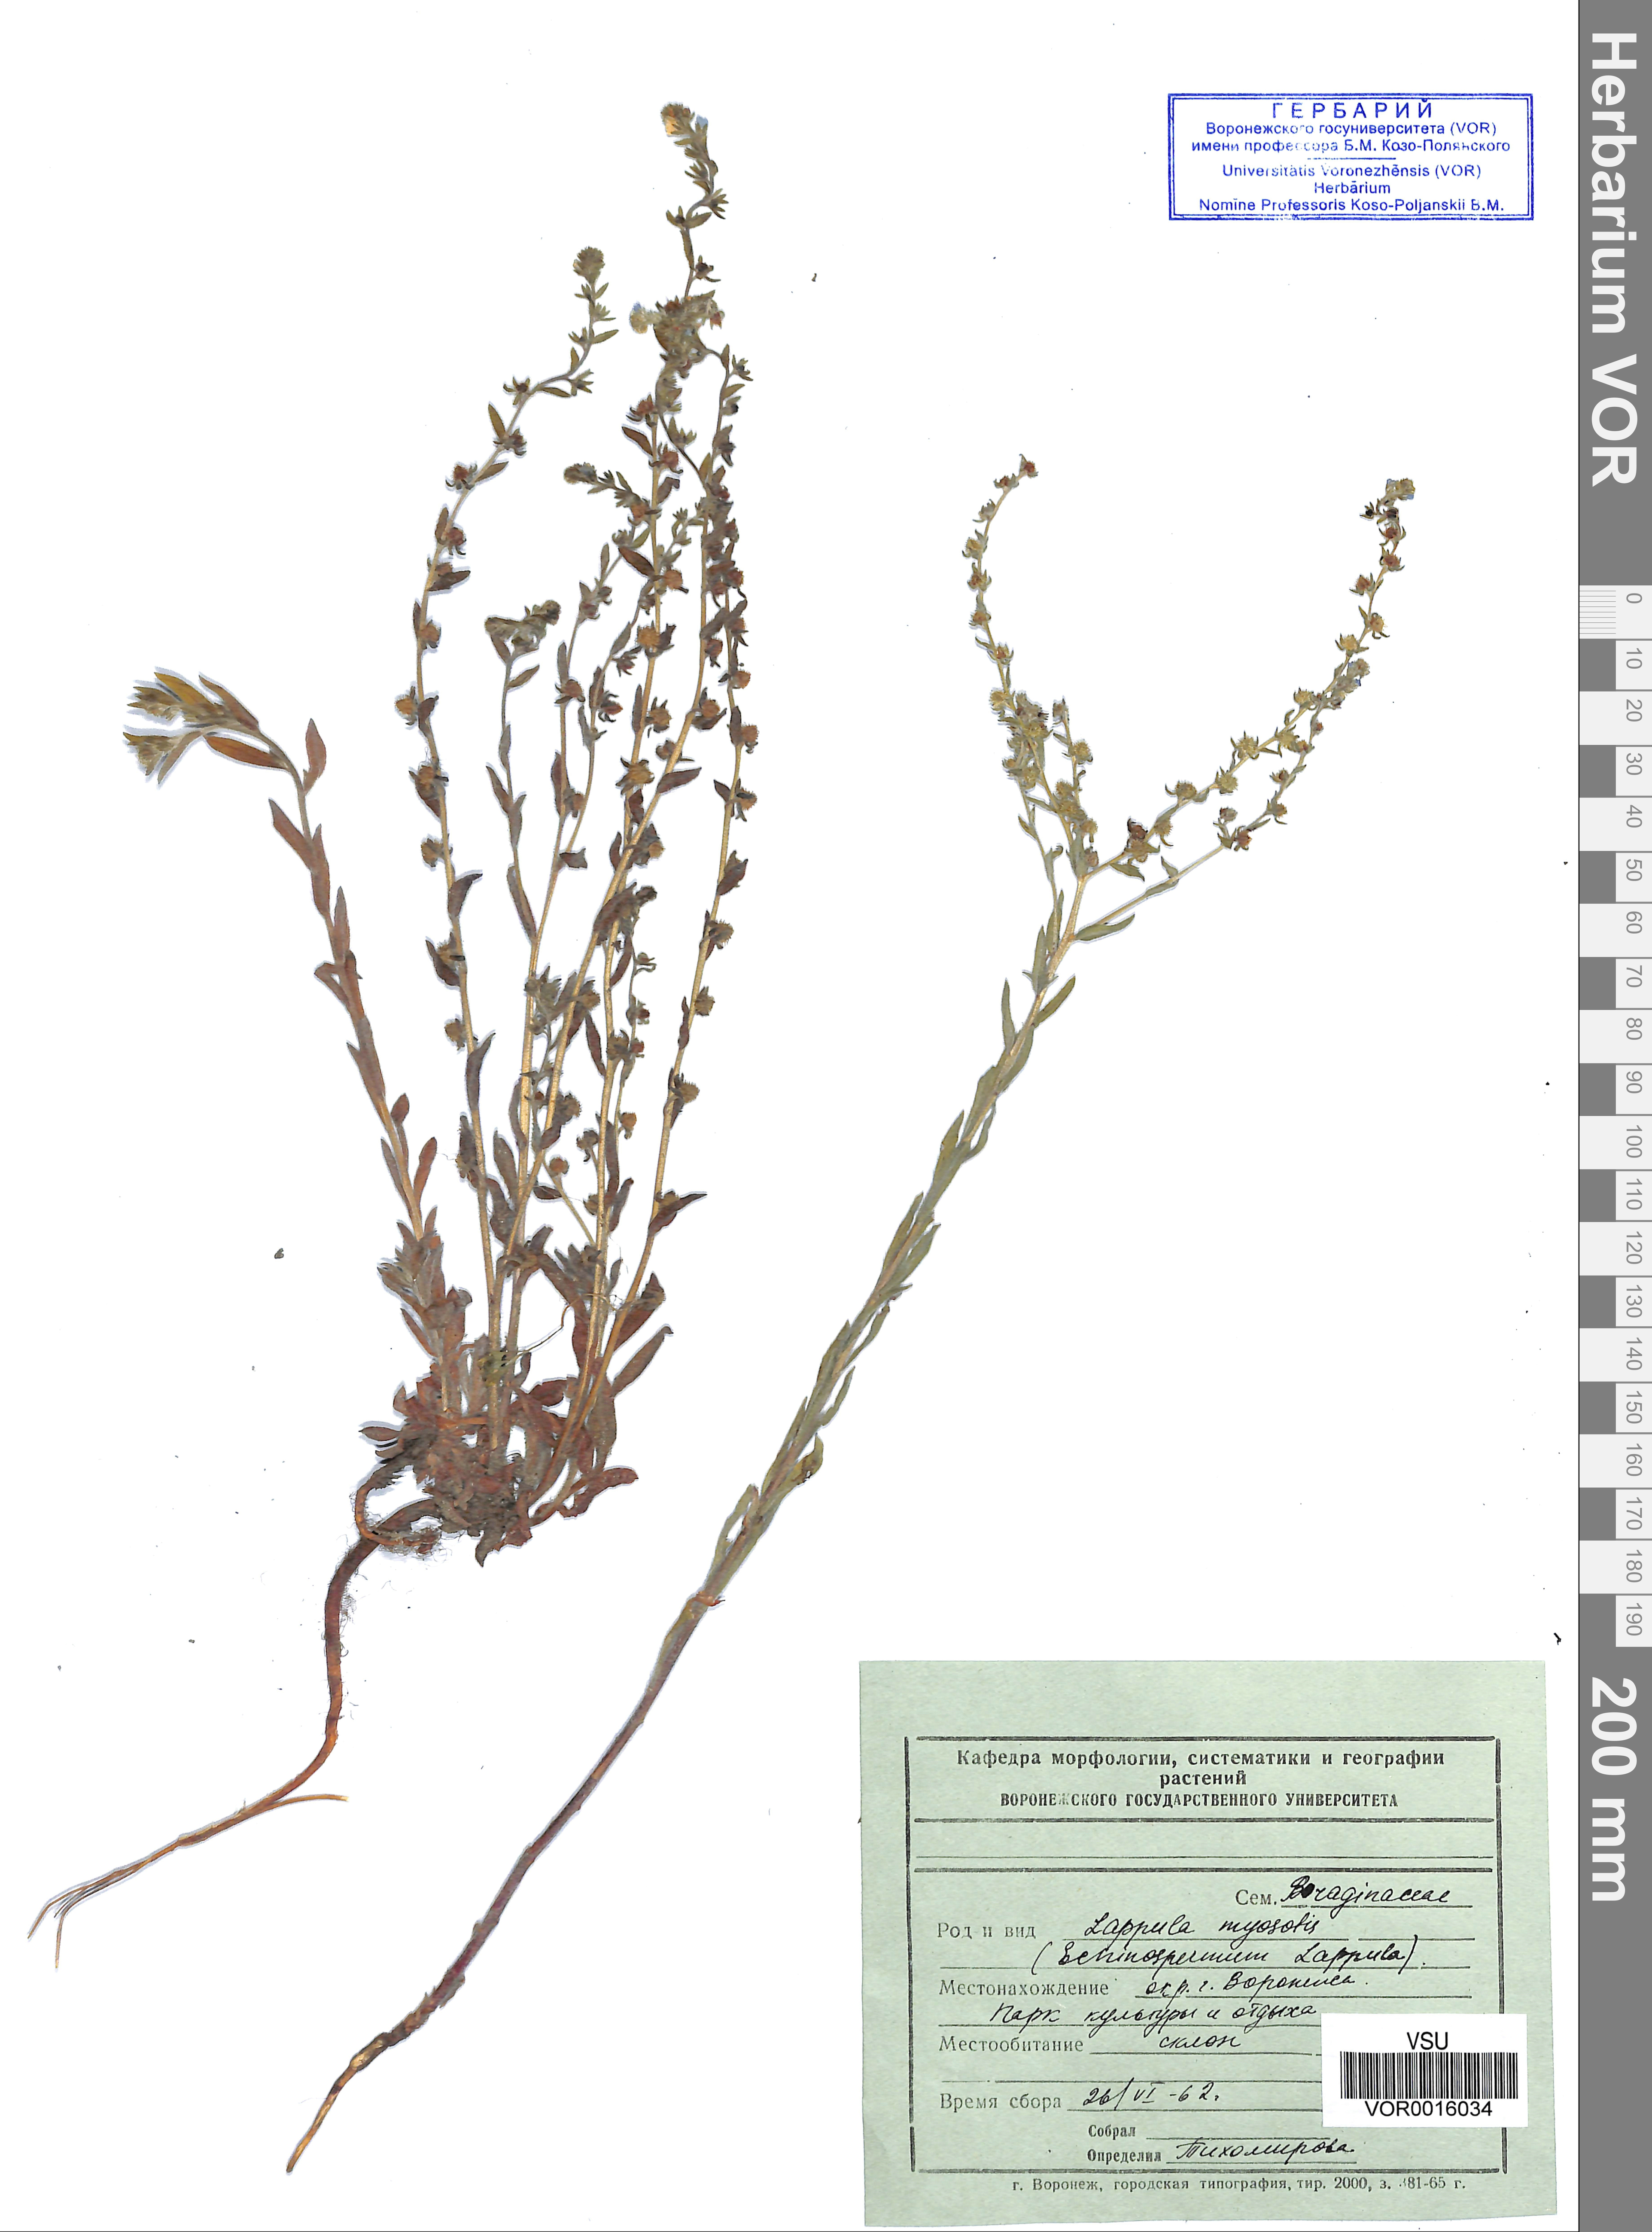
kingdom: Plantae
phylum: Tracheophyta
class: Magnoliopsida
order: Boraginales
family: Boraginaceae
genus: Lappula
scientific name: Lappula squarrosa
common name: European stickseed
